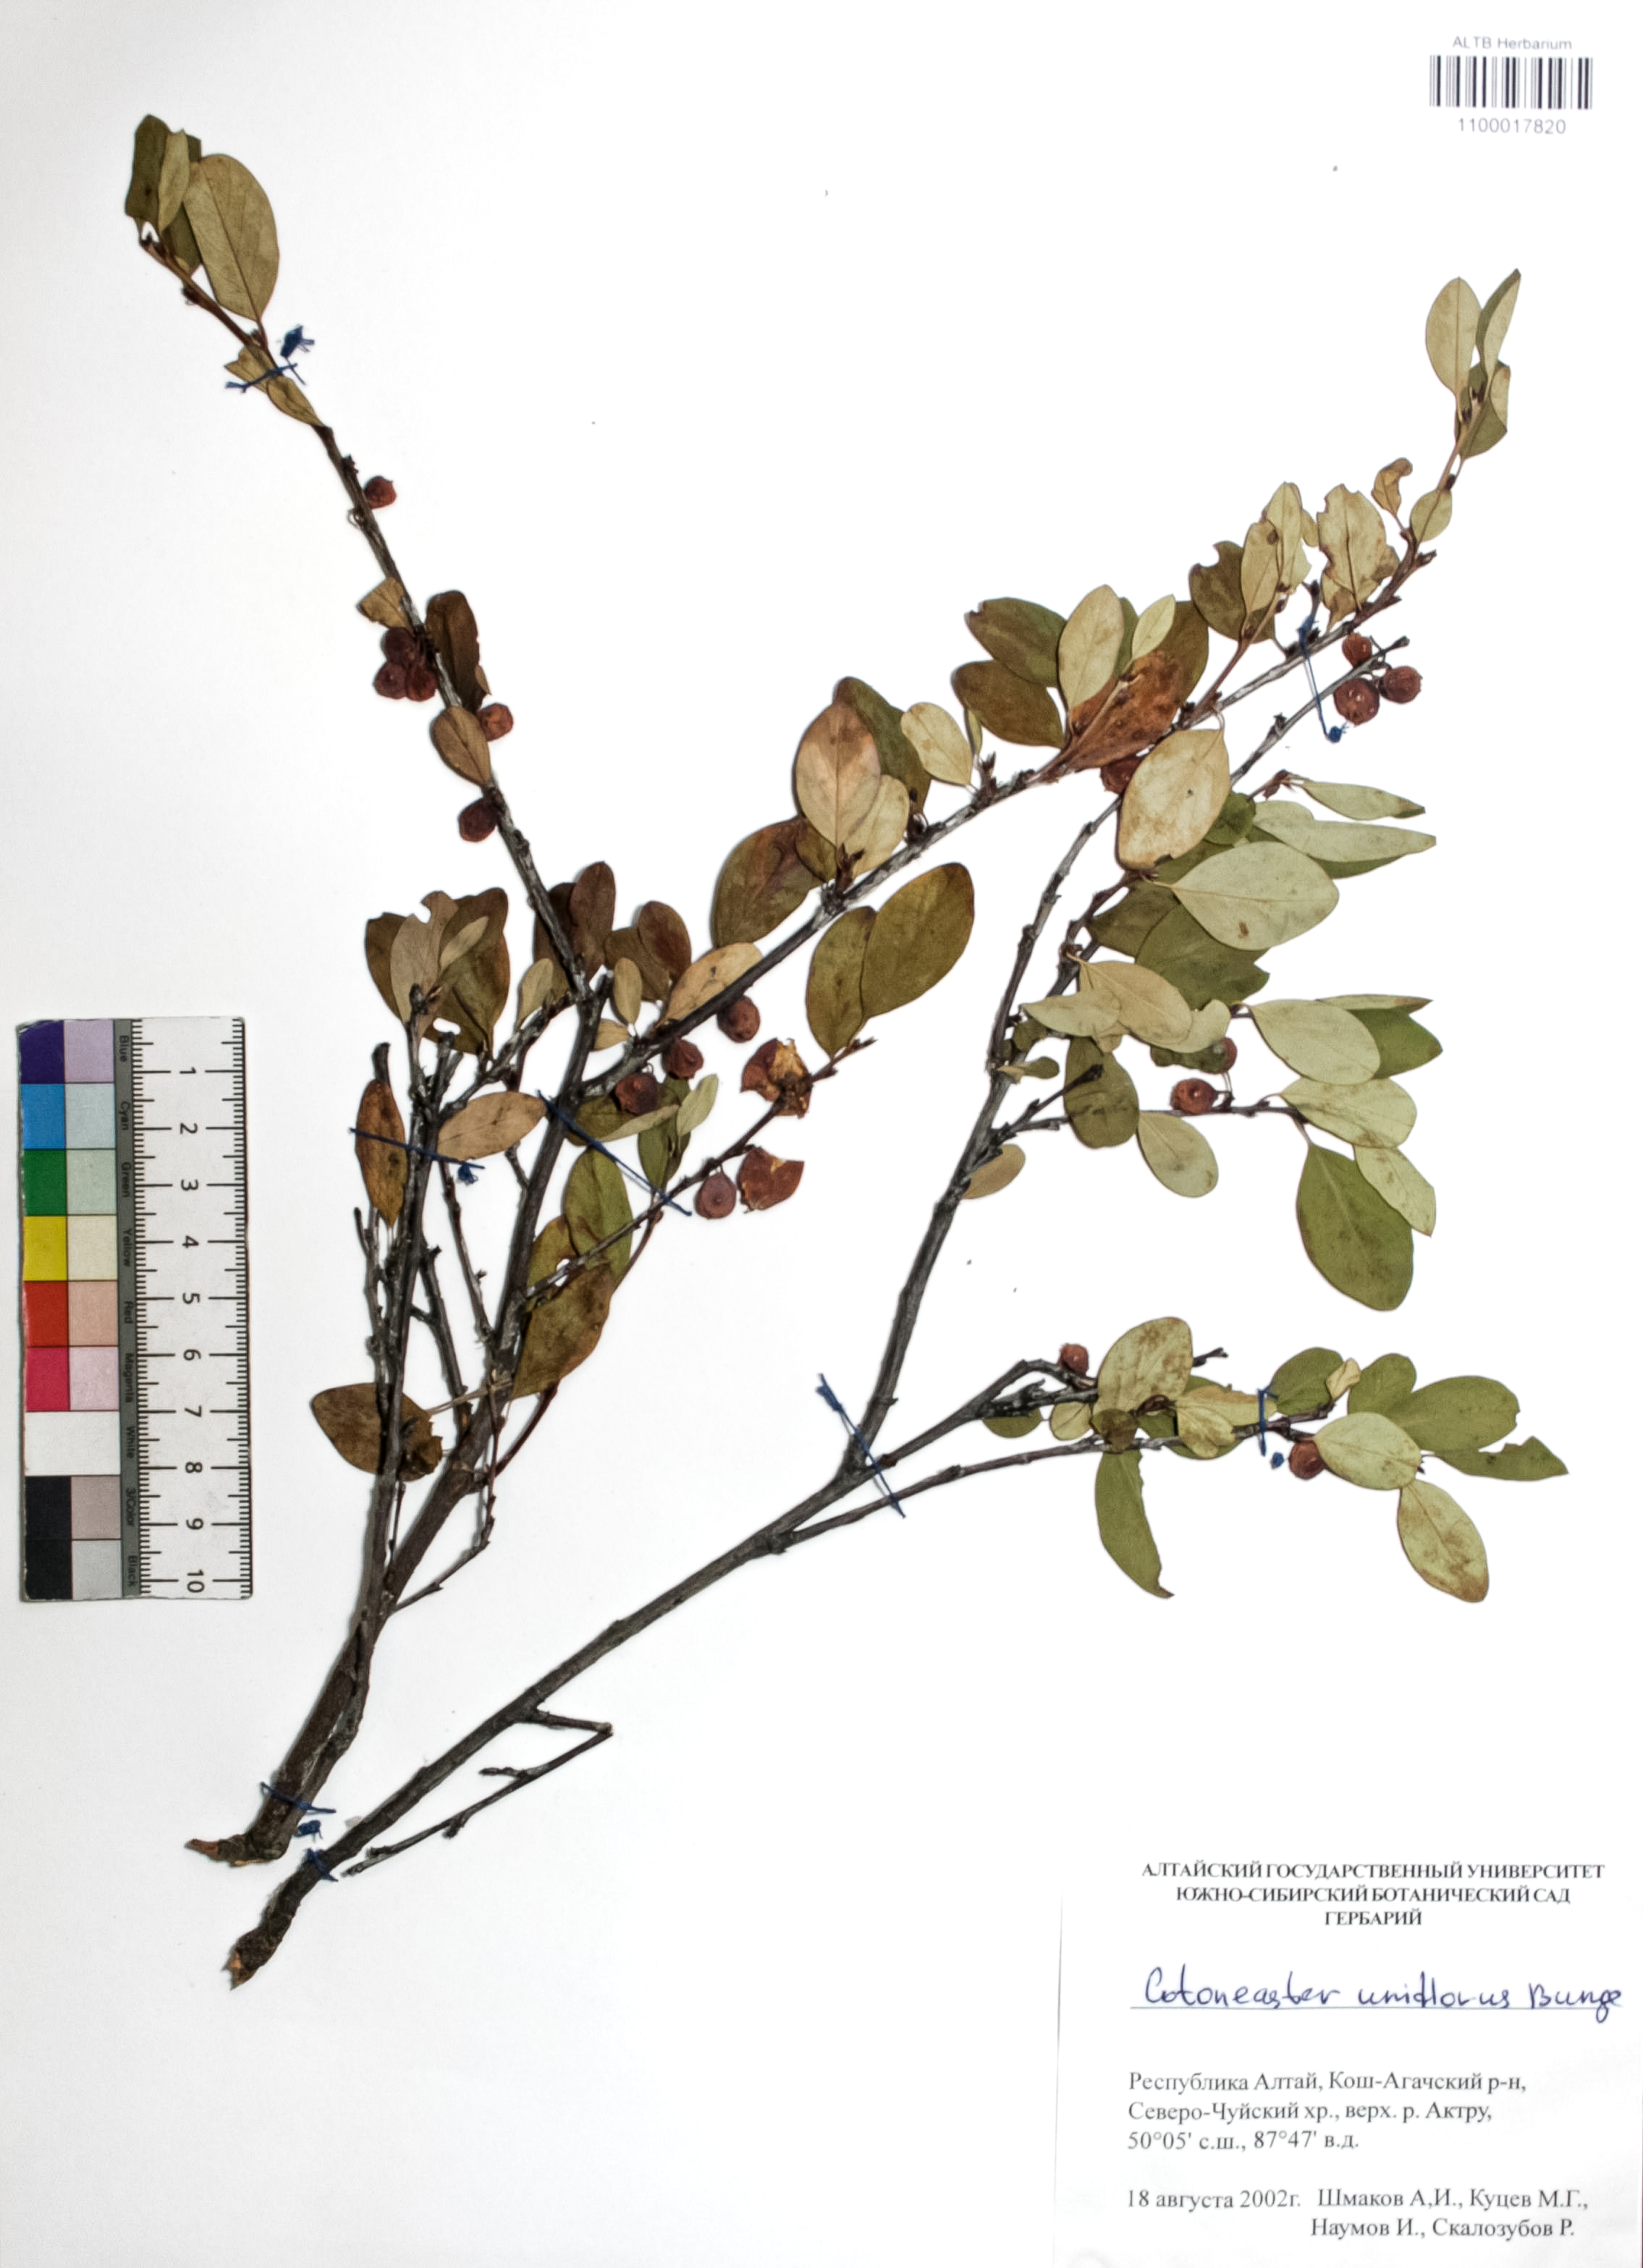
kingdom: Plantae
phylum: Tracheophyta
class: Magnoliopsida
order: Rosales
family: Rosaceae
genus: Cotoneaster
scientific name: Cotoneaster uniflorus
